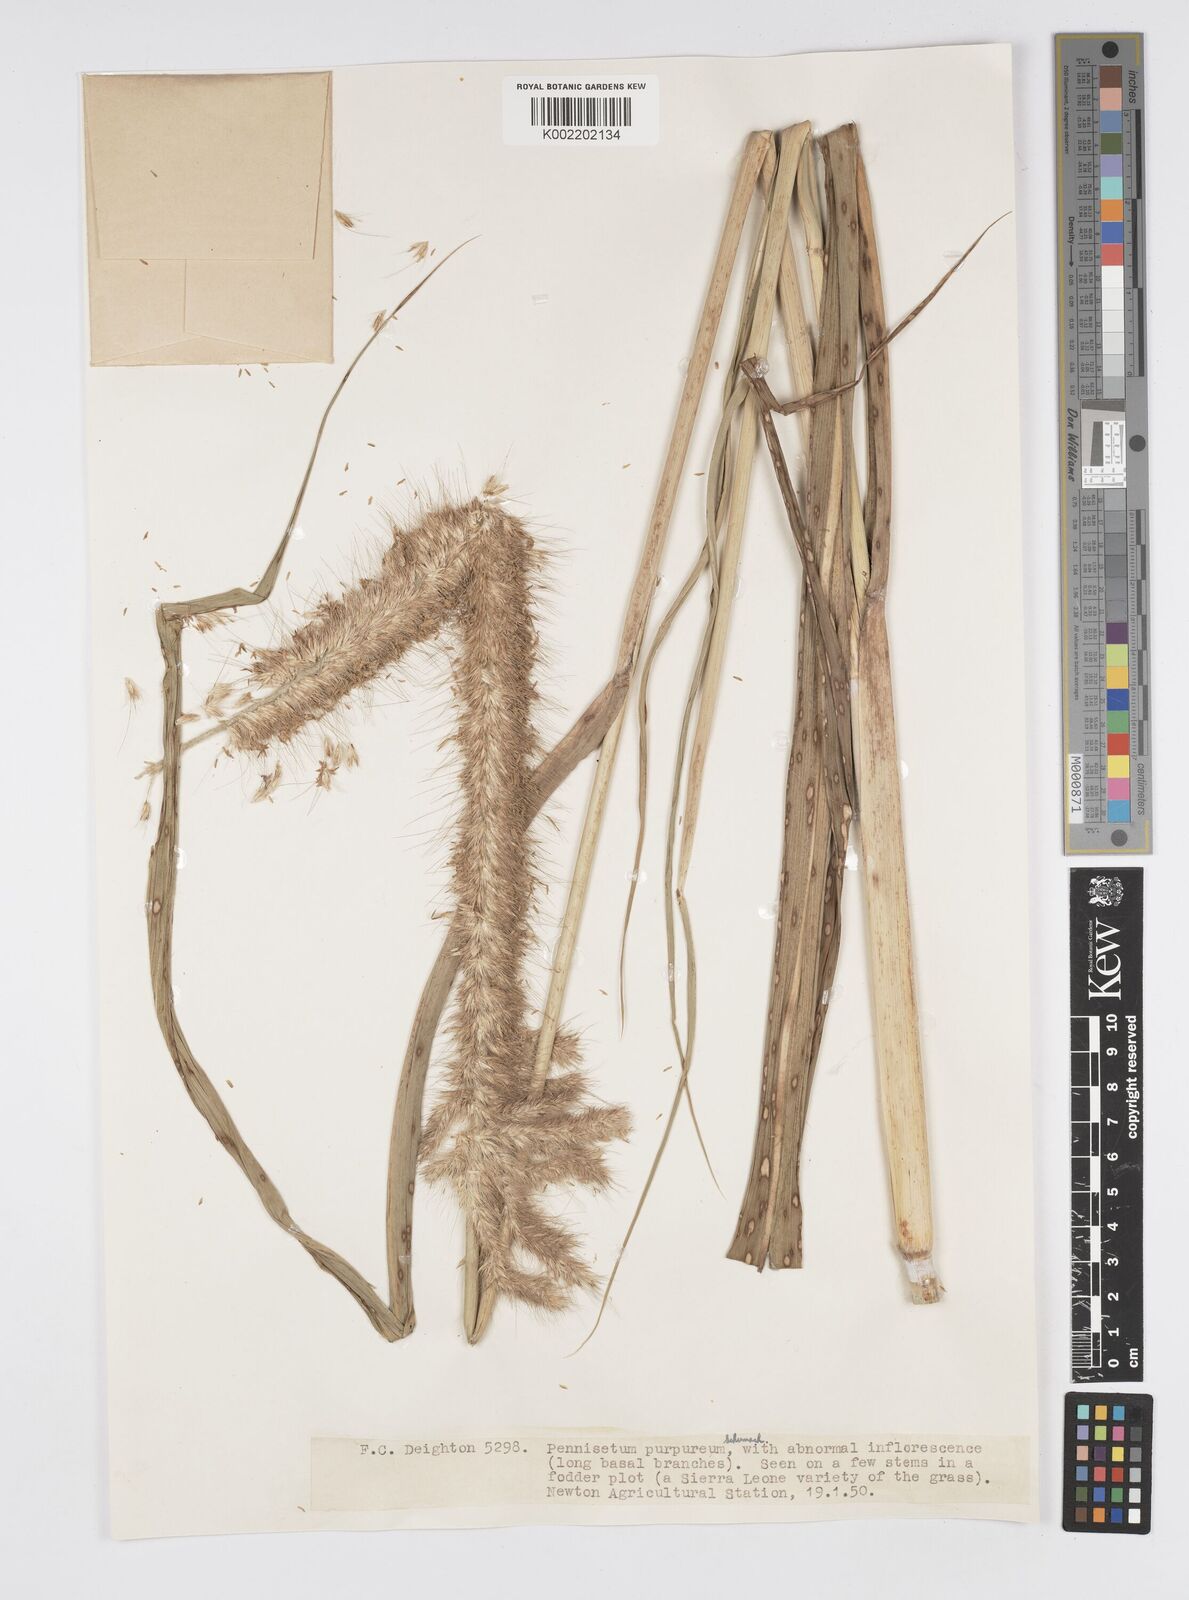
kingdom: Plantae
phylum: Tracheophyta
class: Liliopsida
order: Poales
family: Poaceae
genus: Cenchrus
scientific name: Cenchrus purpureus
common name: Elephant grass
